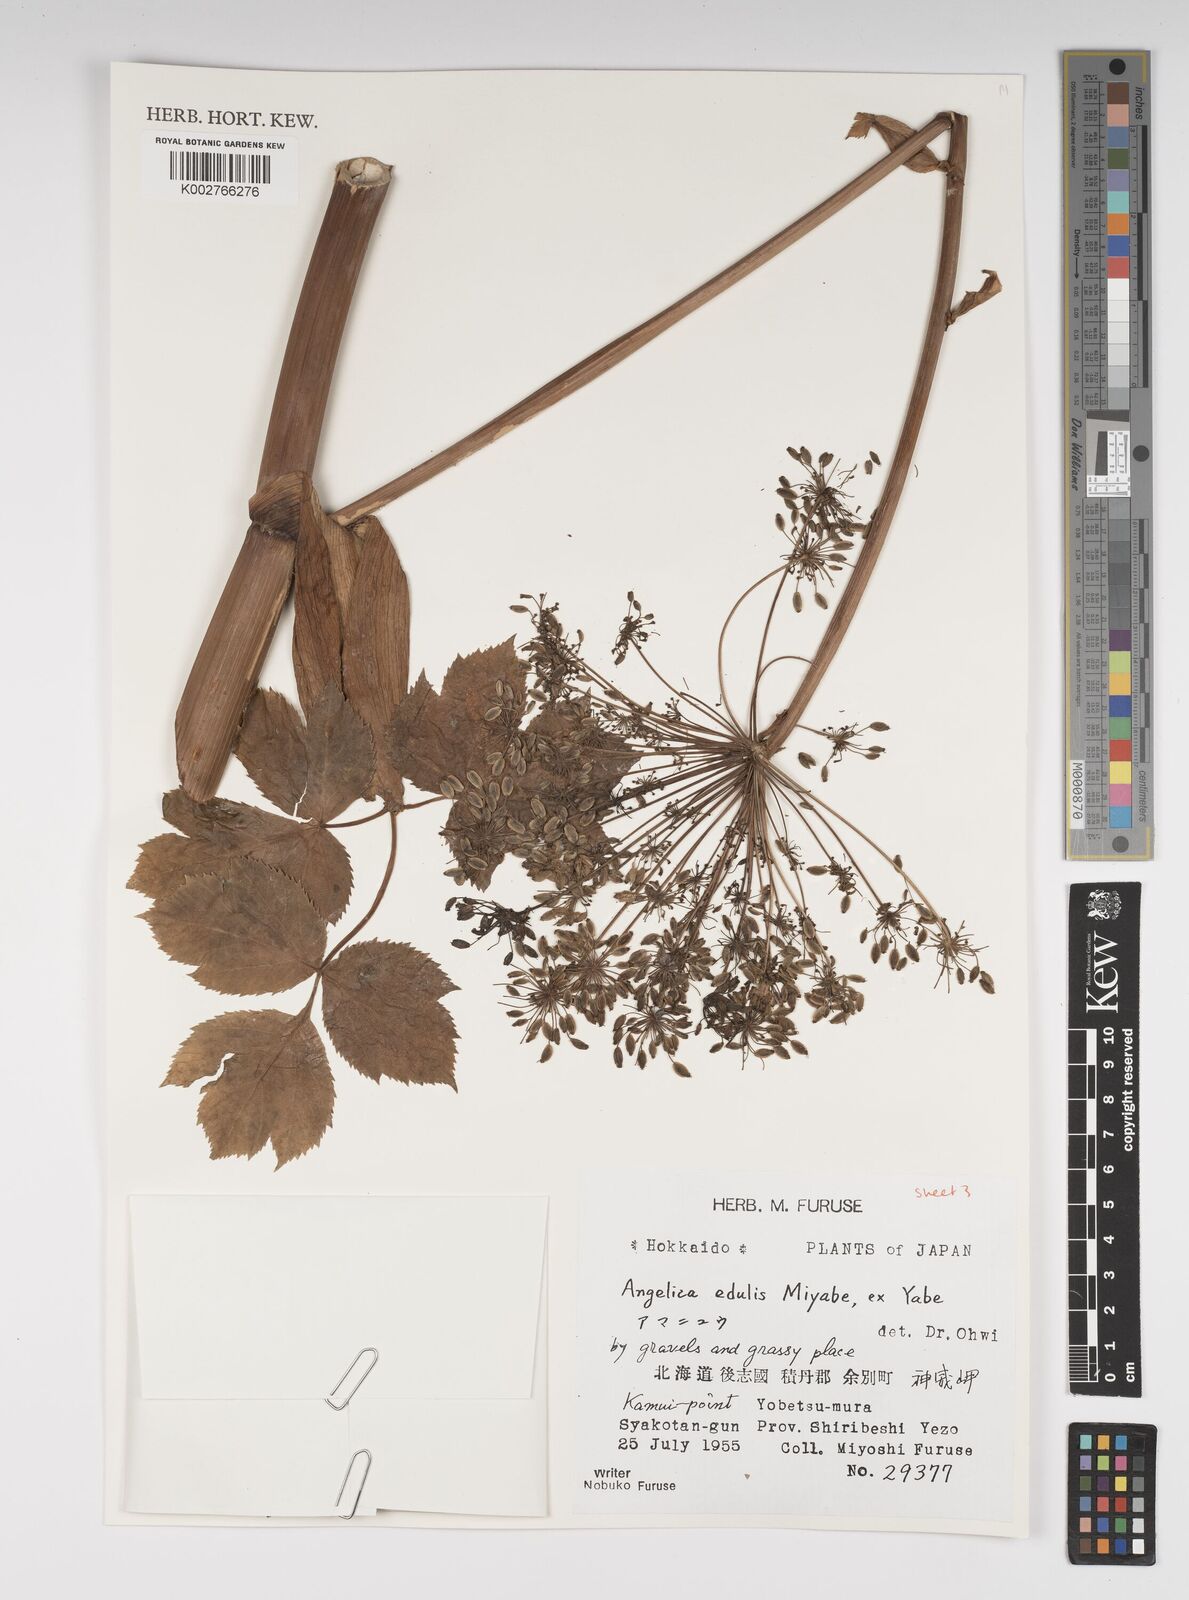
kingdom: Plantae
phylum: Tracheophyta
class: Magnoliopsida
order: Apiales
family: Apiaceae
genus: Angelica
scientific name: Angelica edulis
